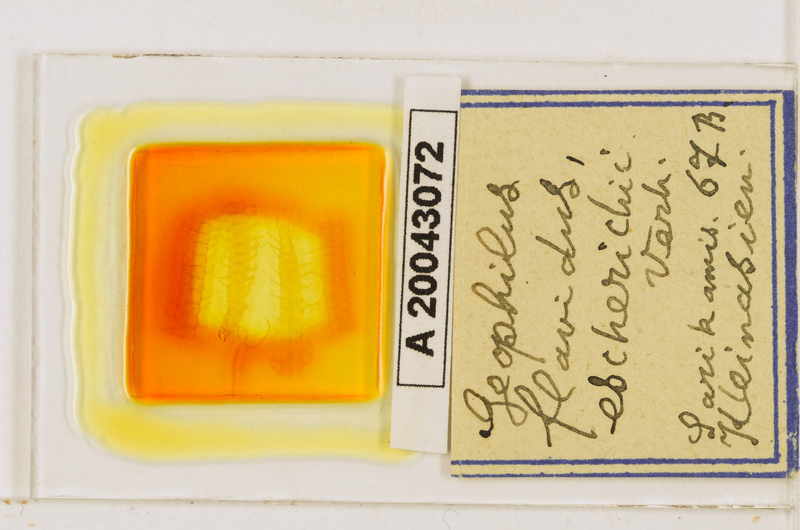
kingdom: Animalia
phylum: Arthropoda
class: Chilopoda
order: Geophilomorpha
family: Geophilidae
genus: Clinopodes
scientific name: Clinopodes flavidus
